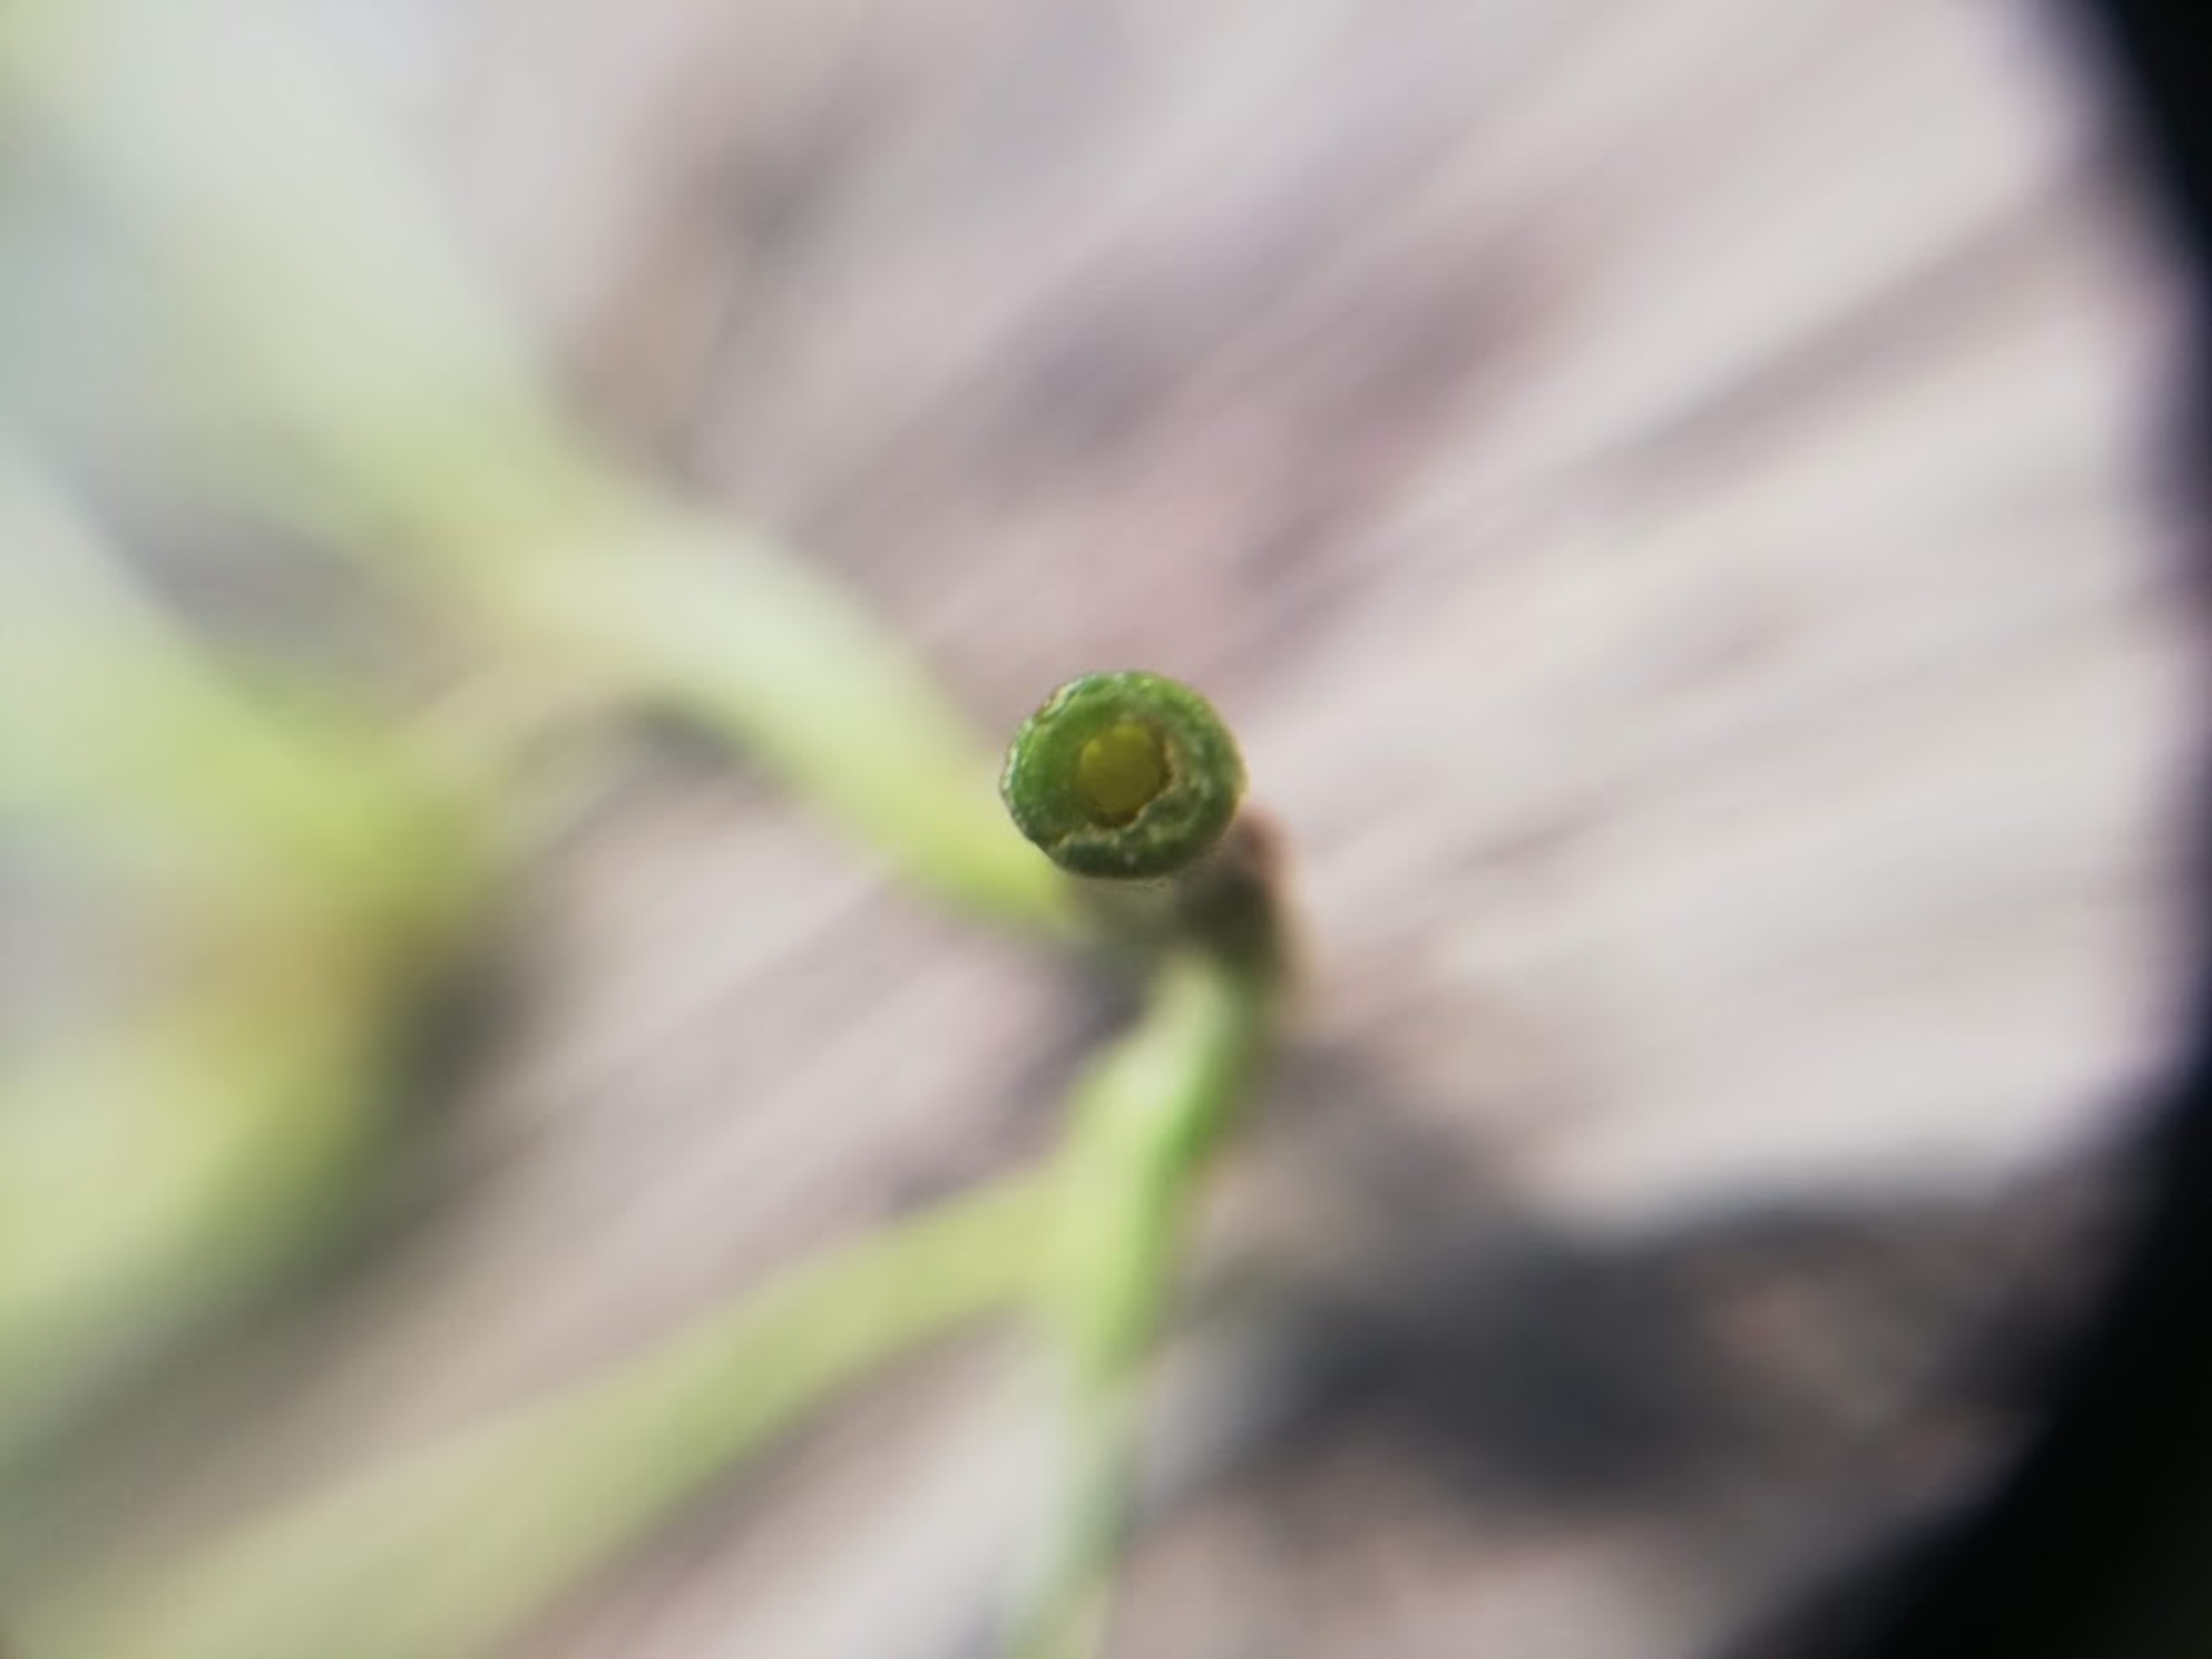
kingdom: Plantae
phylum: Tracheophyta
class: Magnoliopsida
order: Fabales
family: Fabaceae
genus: Trifolium
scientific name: Trifolium hybridum
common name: Alsike-kløver
